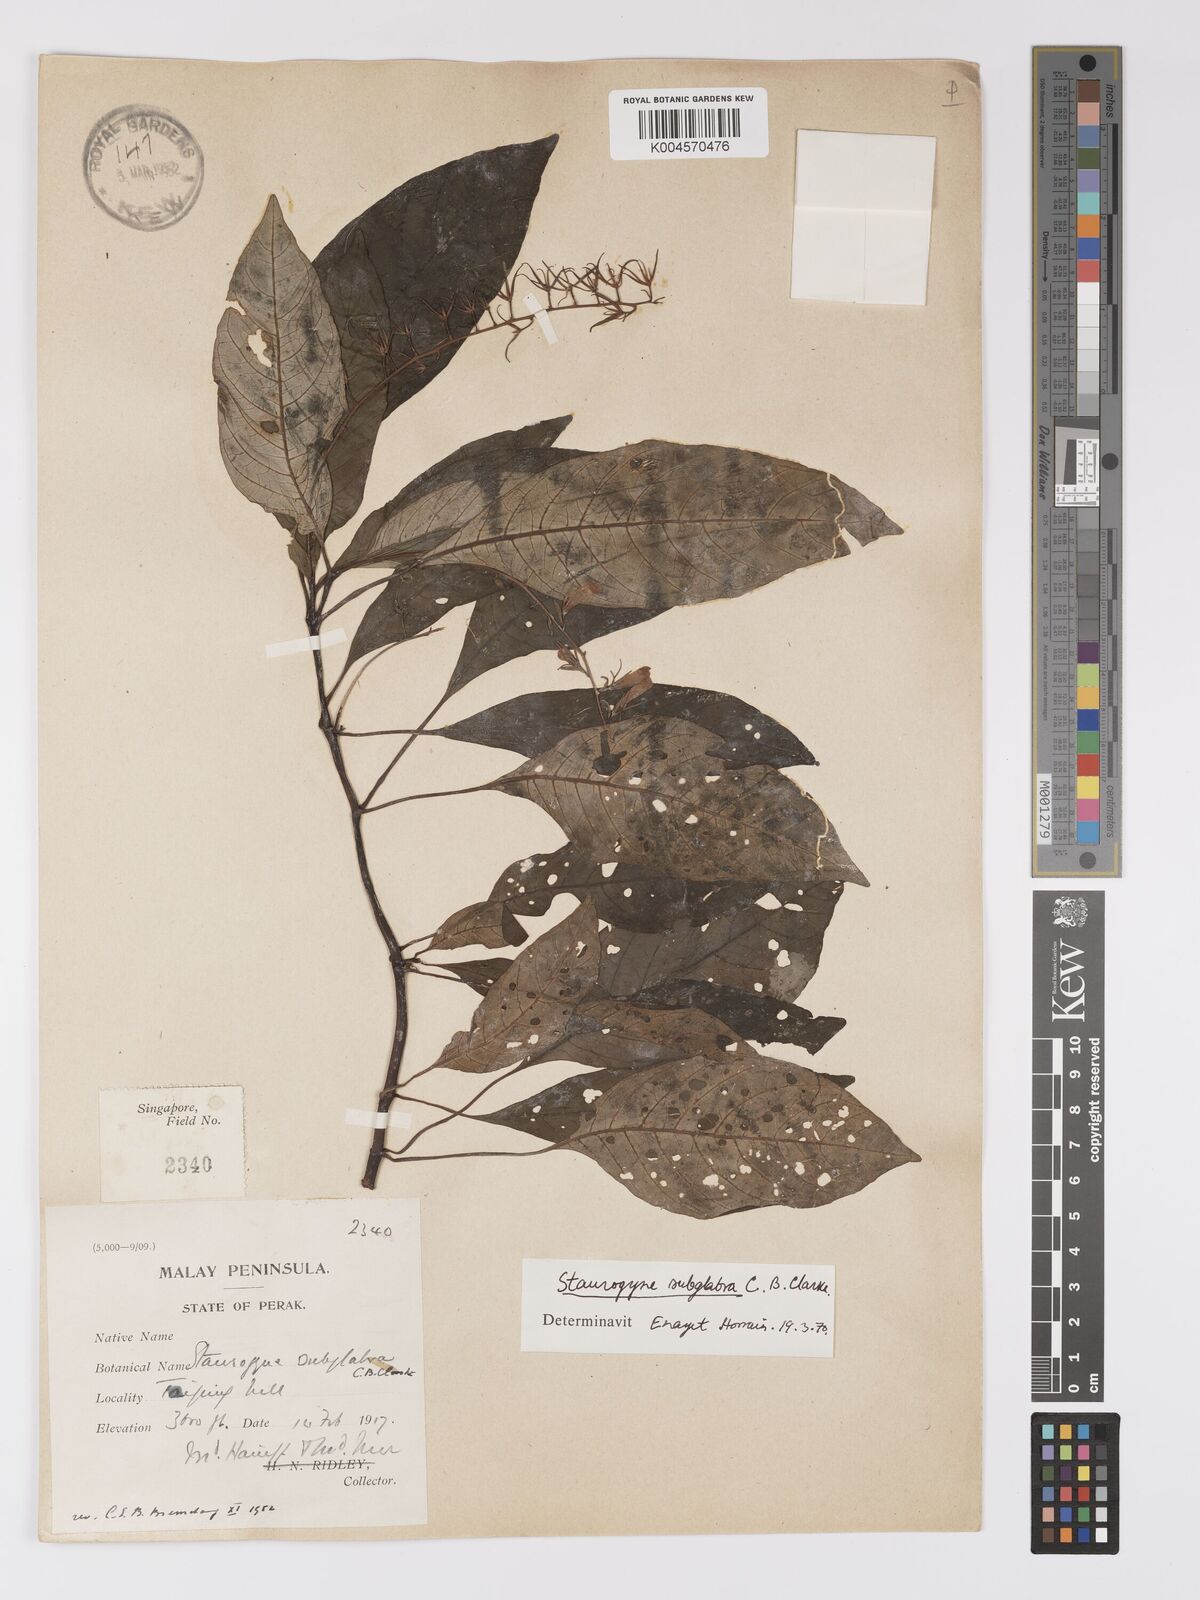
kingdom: Plantae
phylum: Tracheophyta
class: Magnoliopsida
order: Lamiales
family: Acanthaceae
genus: Staurogyne
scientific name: Staurogyne subglabra
